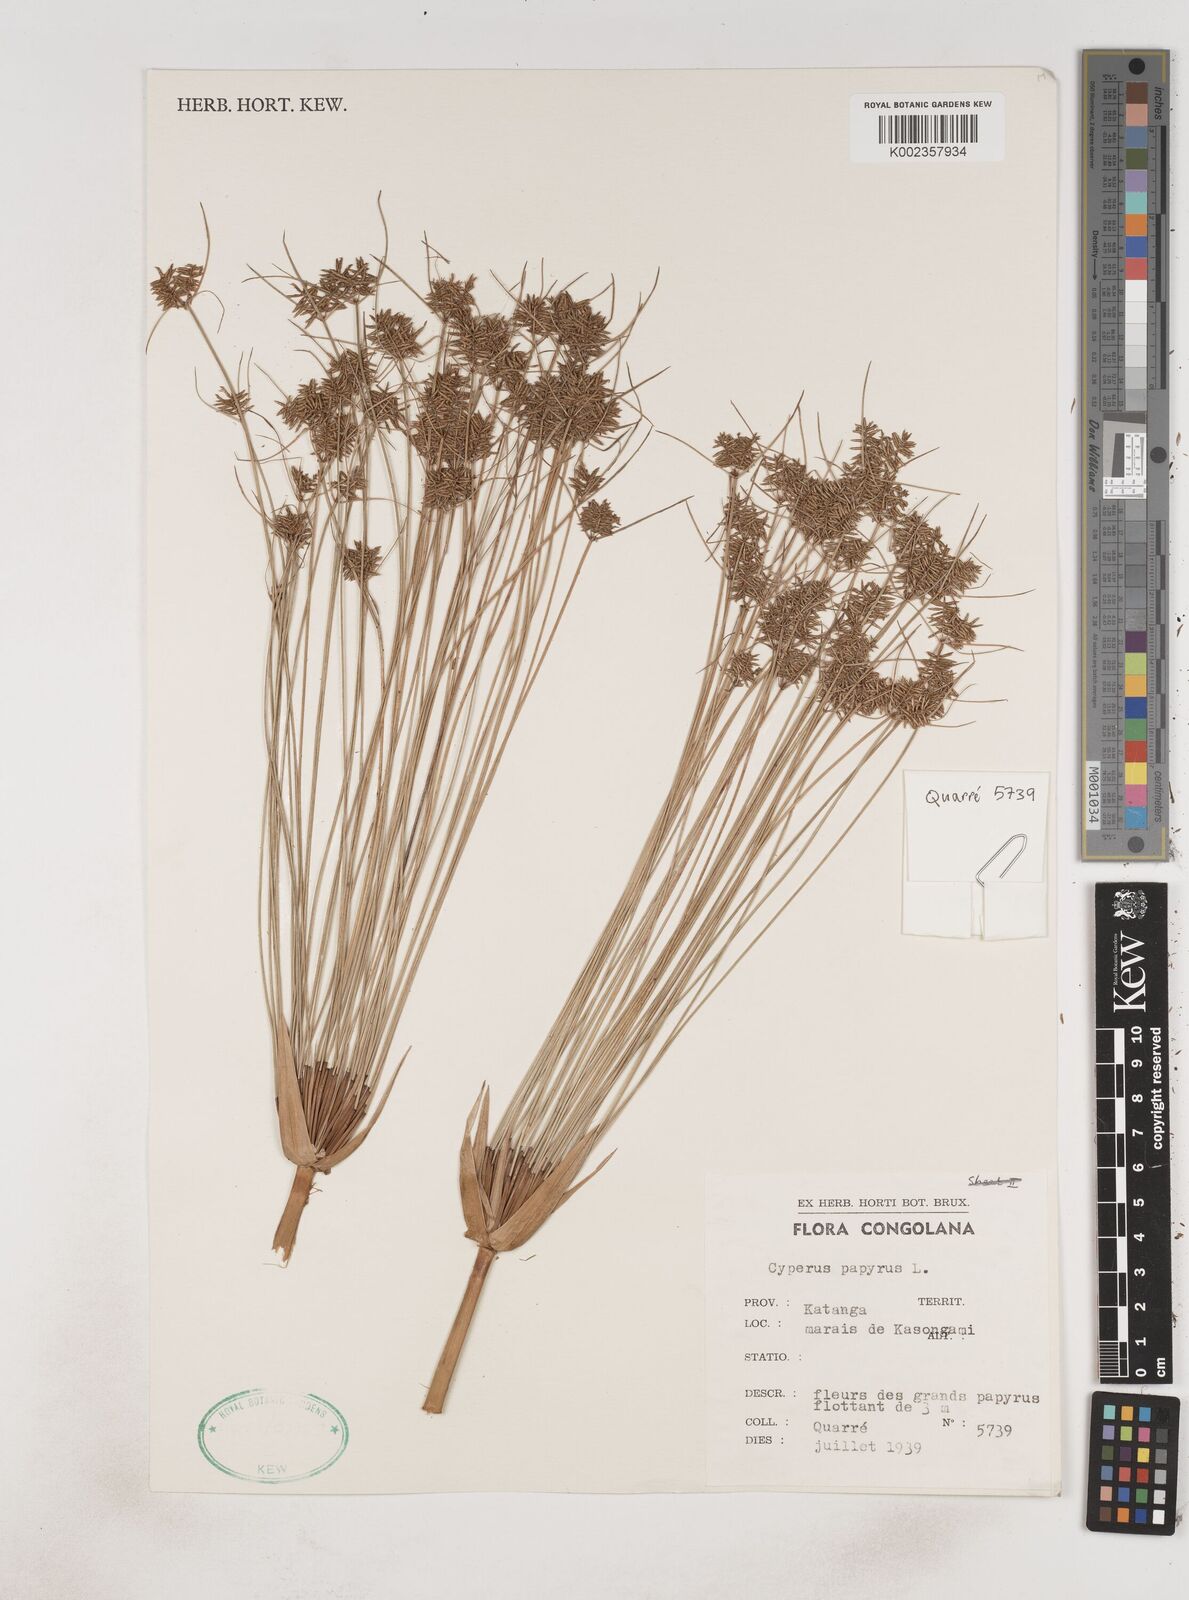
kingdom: Plantae
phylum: Tracheophyta
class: Liliopsida
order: Poales
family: Cyperaceae
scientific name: Cyperaceae
